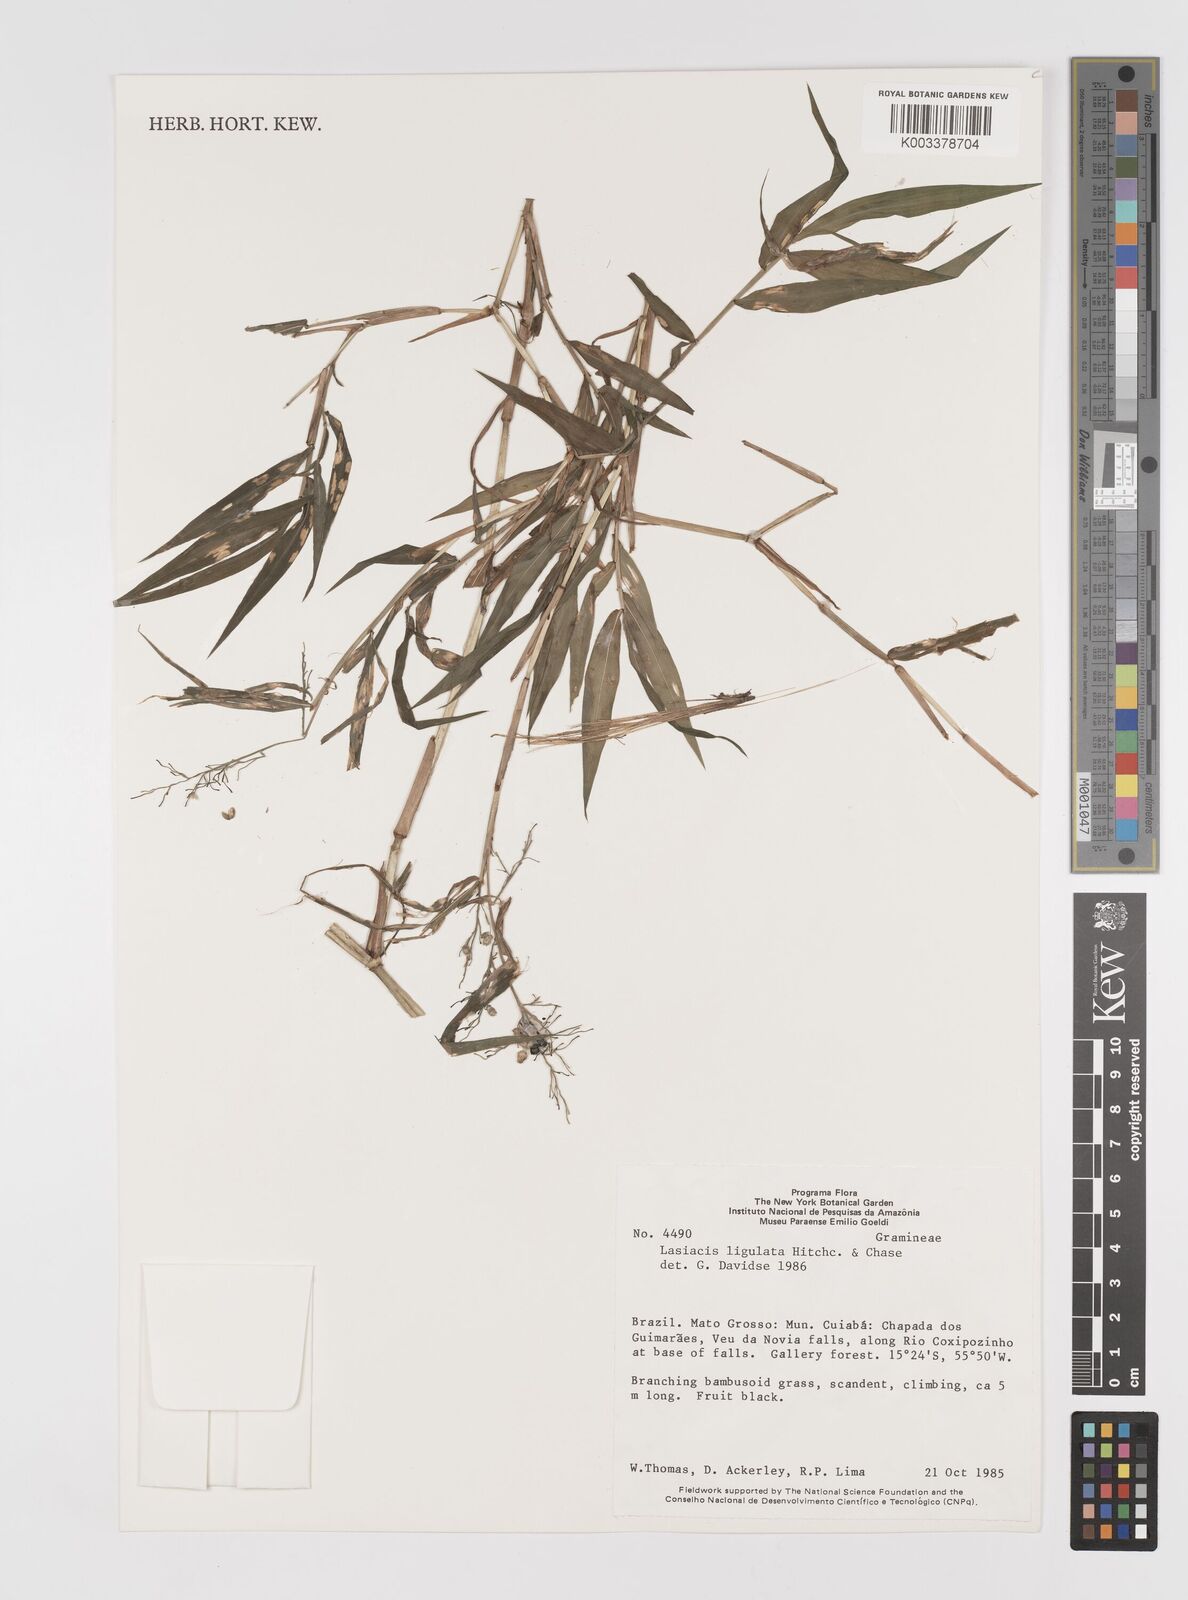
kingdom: Plantae
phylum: Tracheophyta
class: Liliopsida
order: Poales
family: Poaceae
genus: Lasiacis
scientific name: Lasiacis ligulata
